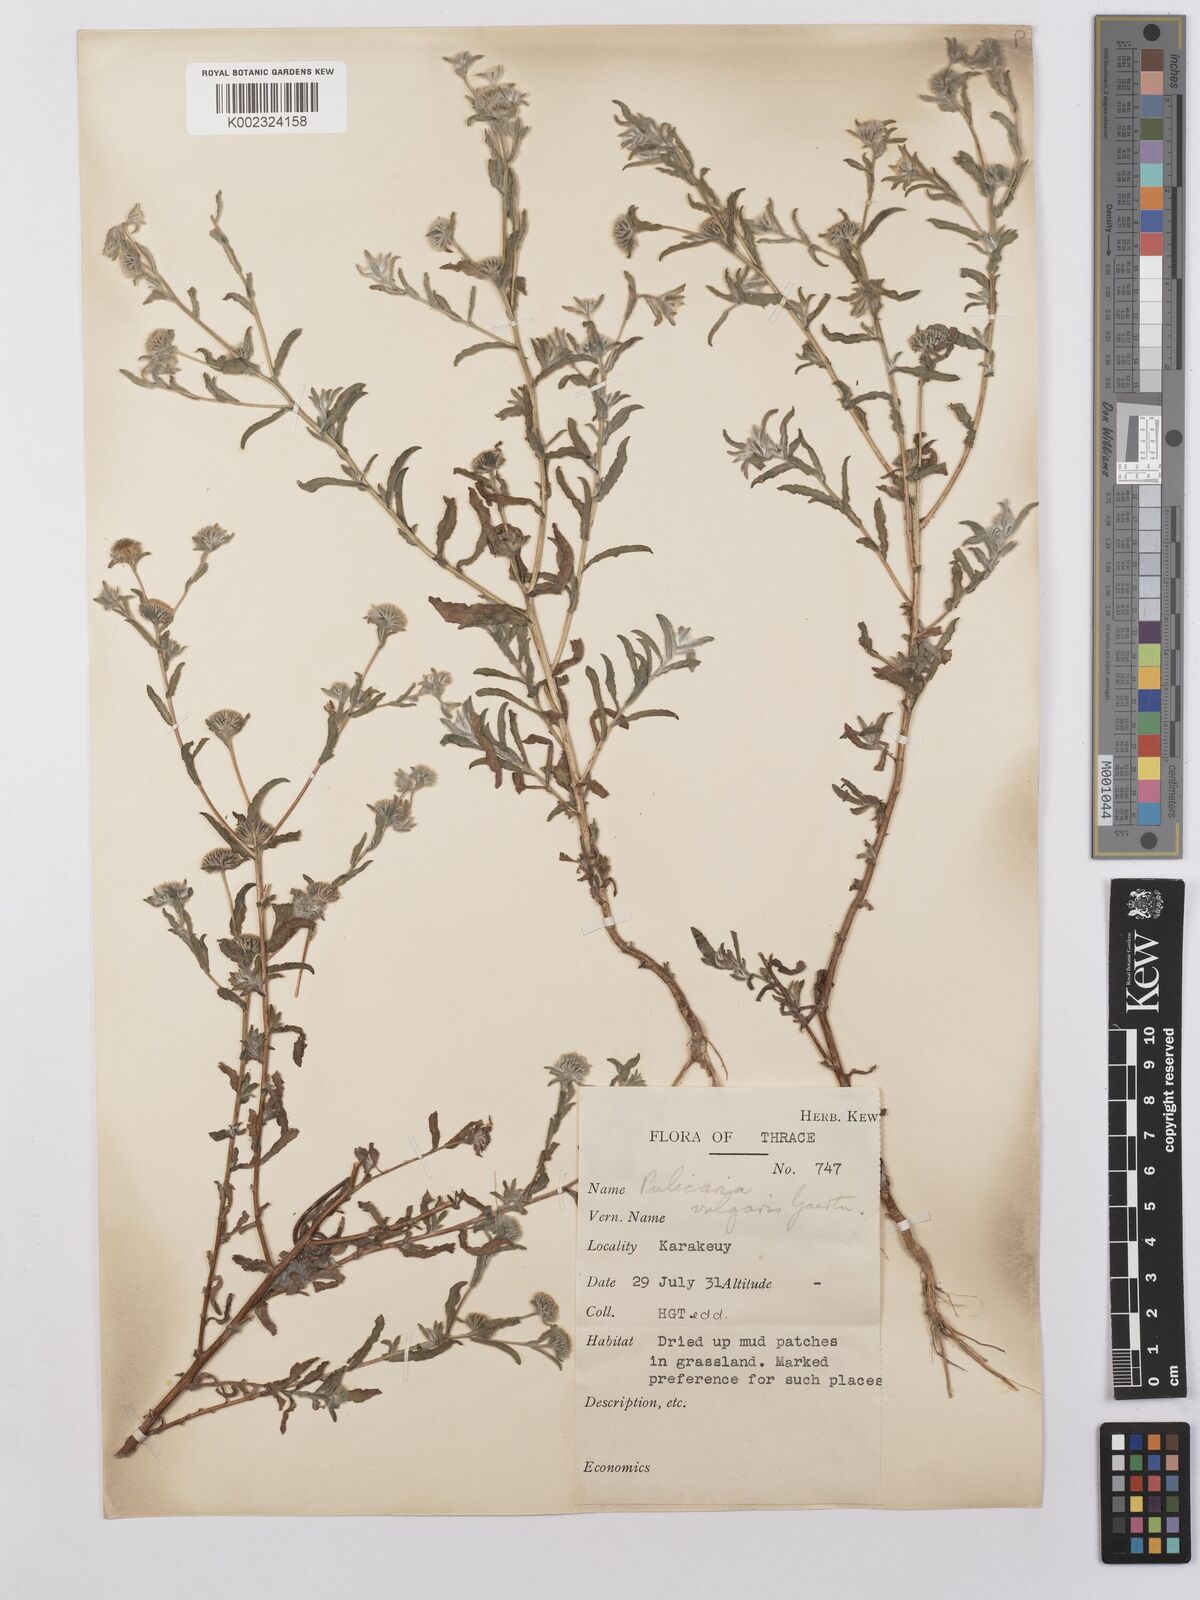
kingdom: Plantae
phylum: Tracheophyta
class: Magnoliopsida
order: Asterales
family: Asteraceae
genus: Pulicaria
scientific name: Pulicaria vulgaris
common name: Small fleabane
